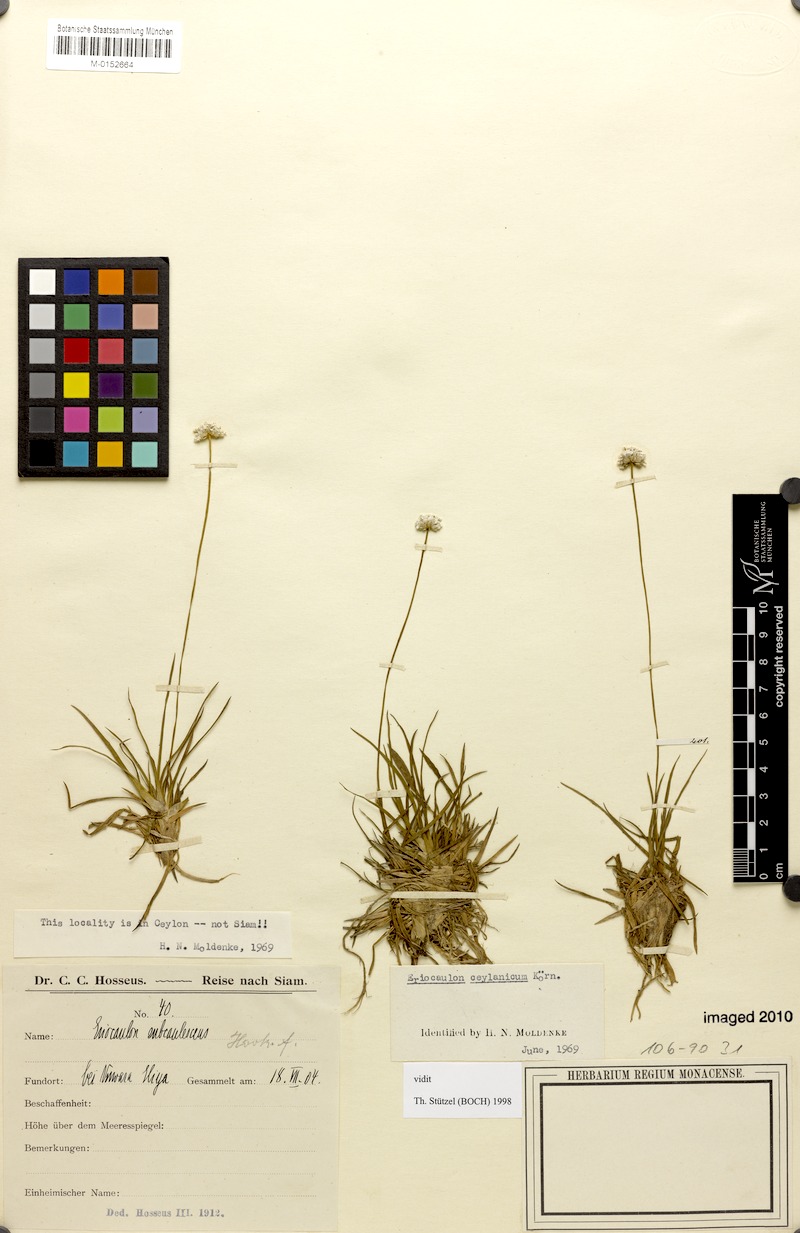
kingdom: Plantae
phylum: Tracheophyta
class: Liliopsida
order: Poales
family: Eriocaulaceae
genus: Eriocaulon
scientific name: Eriocaulon ceylanicum
